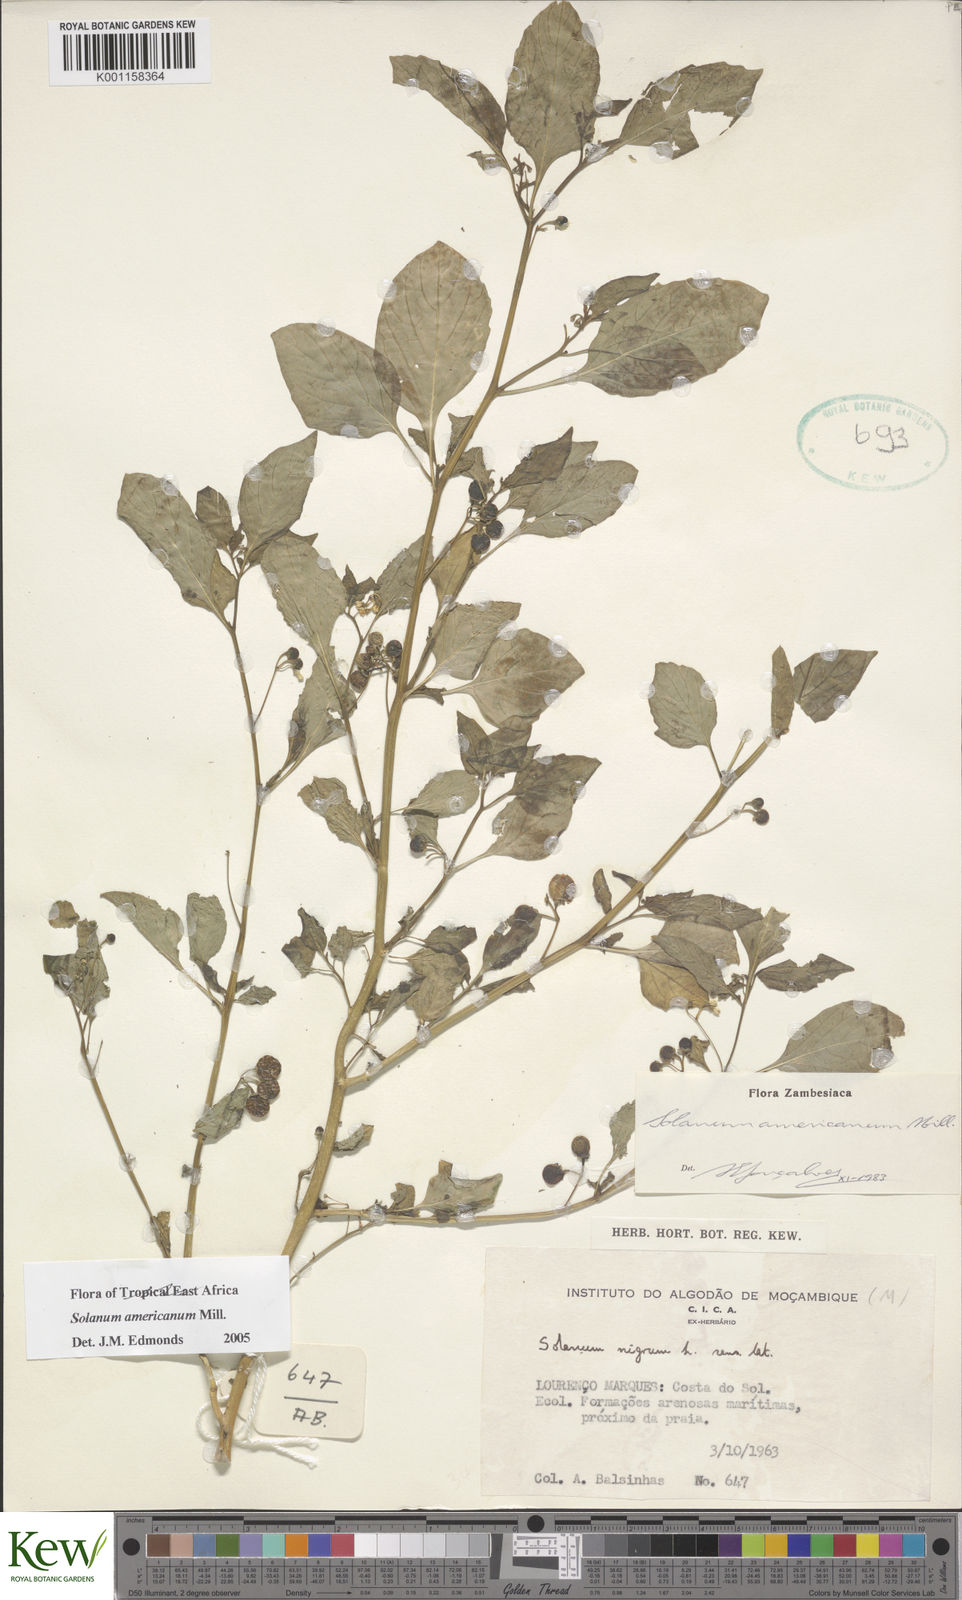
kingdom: Plantae
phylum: Tracheophyta
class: Magnoliopsida
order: Solanales
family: Solanaceae
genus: Solanum
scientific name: Solanum americanum
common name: American black nightshade
